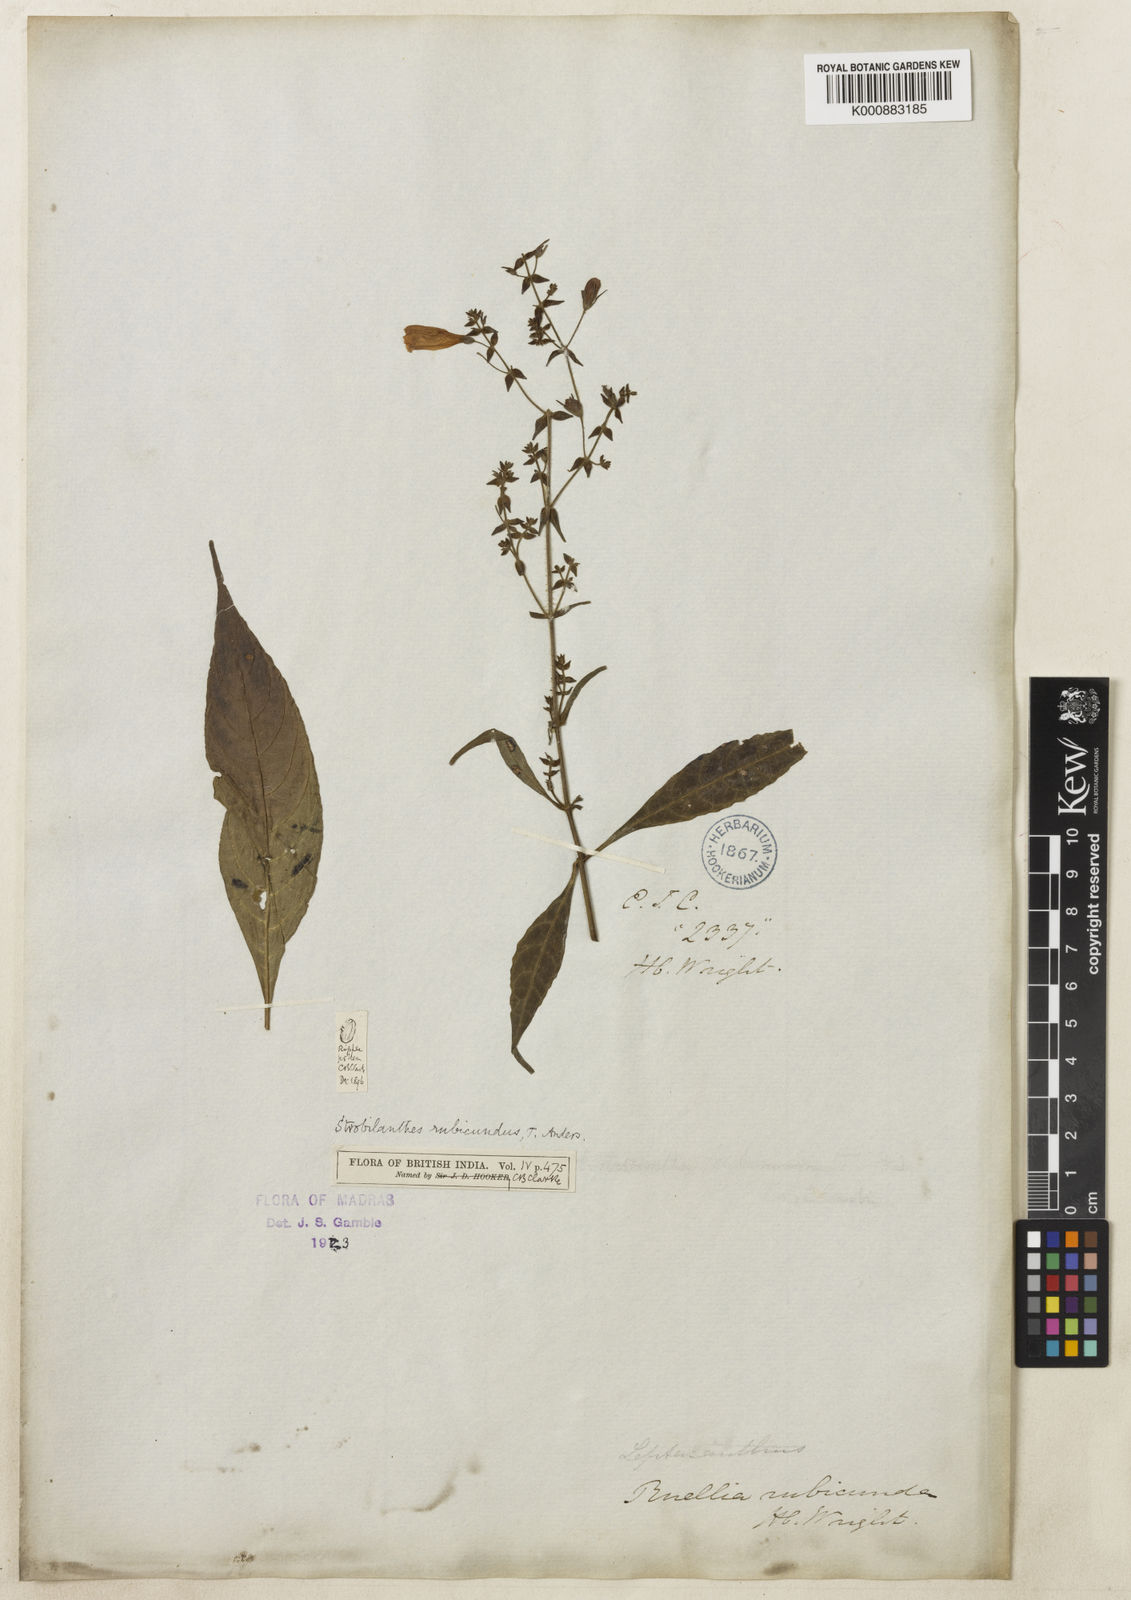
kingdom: Plantae
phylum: Tracheophyta
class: Magnoliopsida
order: Lamiales
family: Acanthaceae
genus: Strobilanthes
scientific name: Strobilanthes rubicunda
